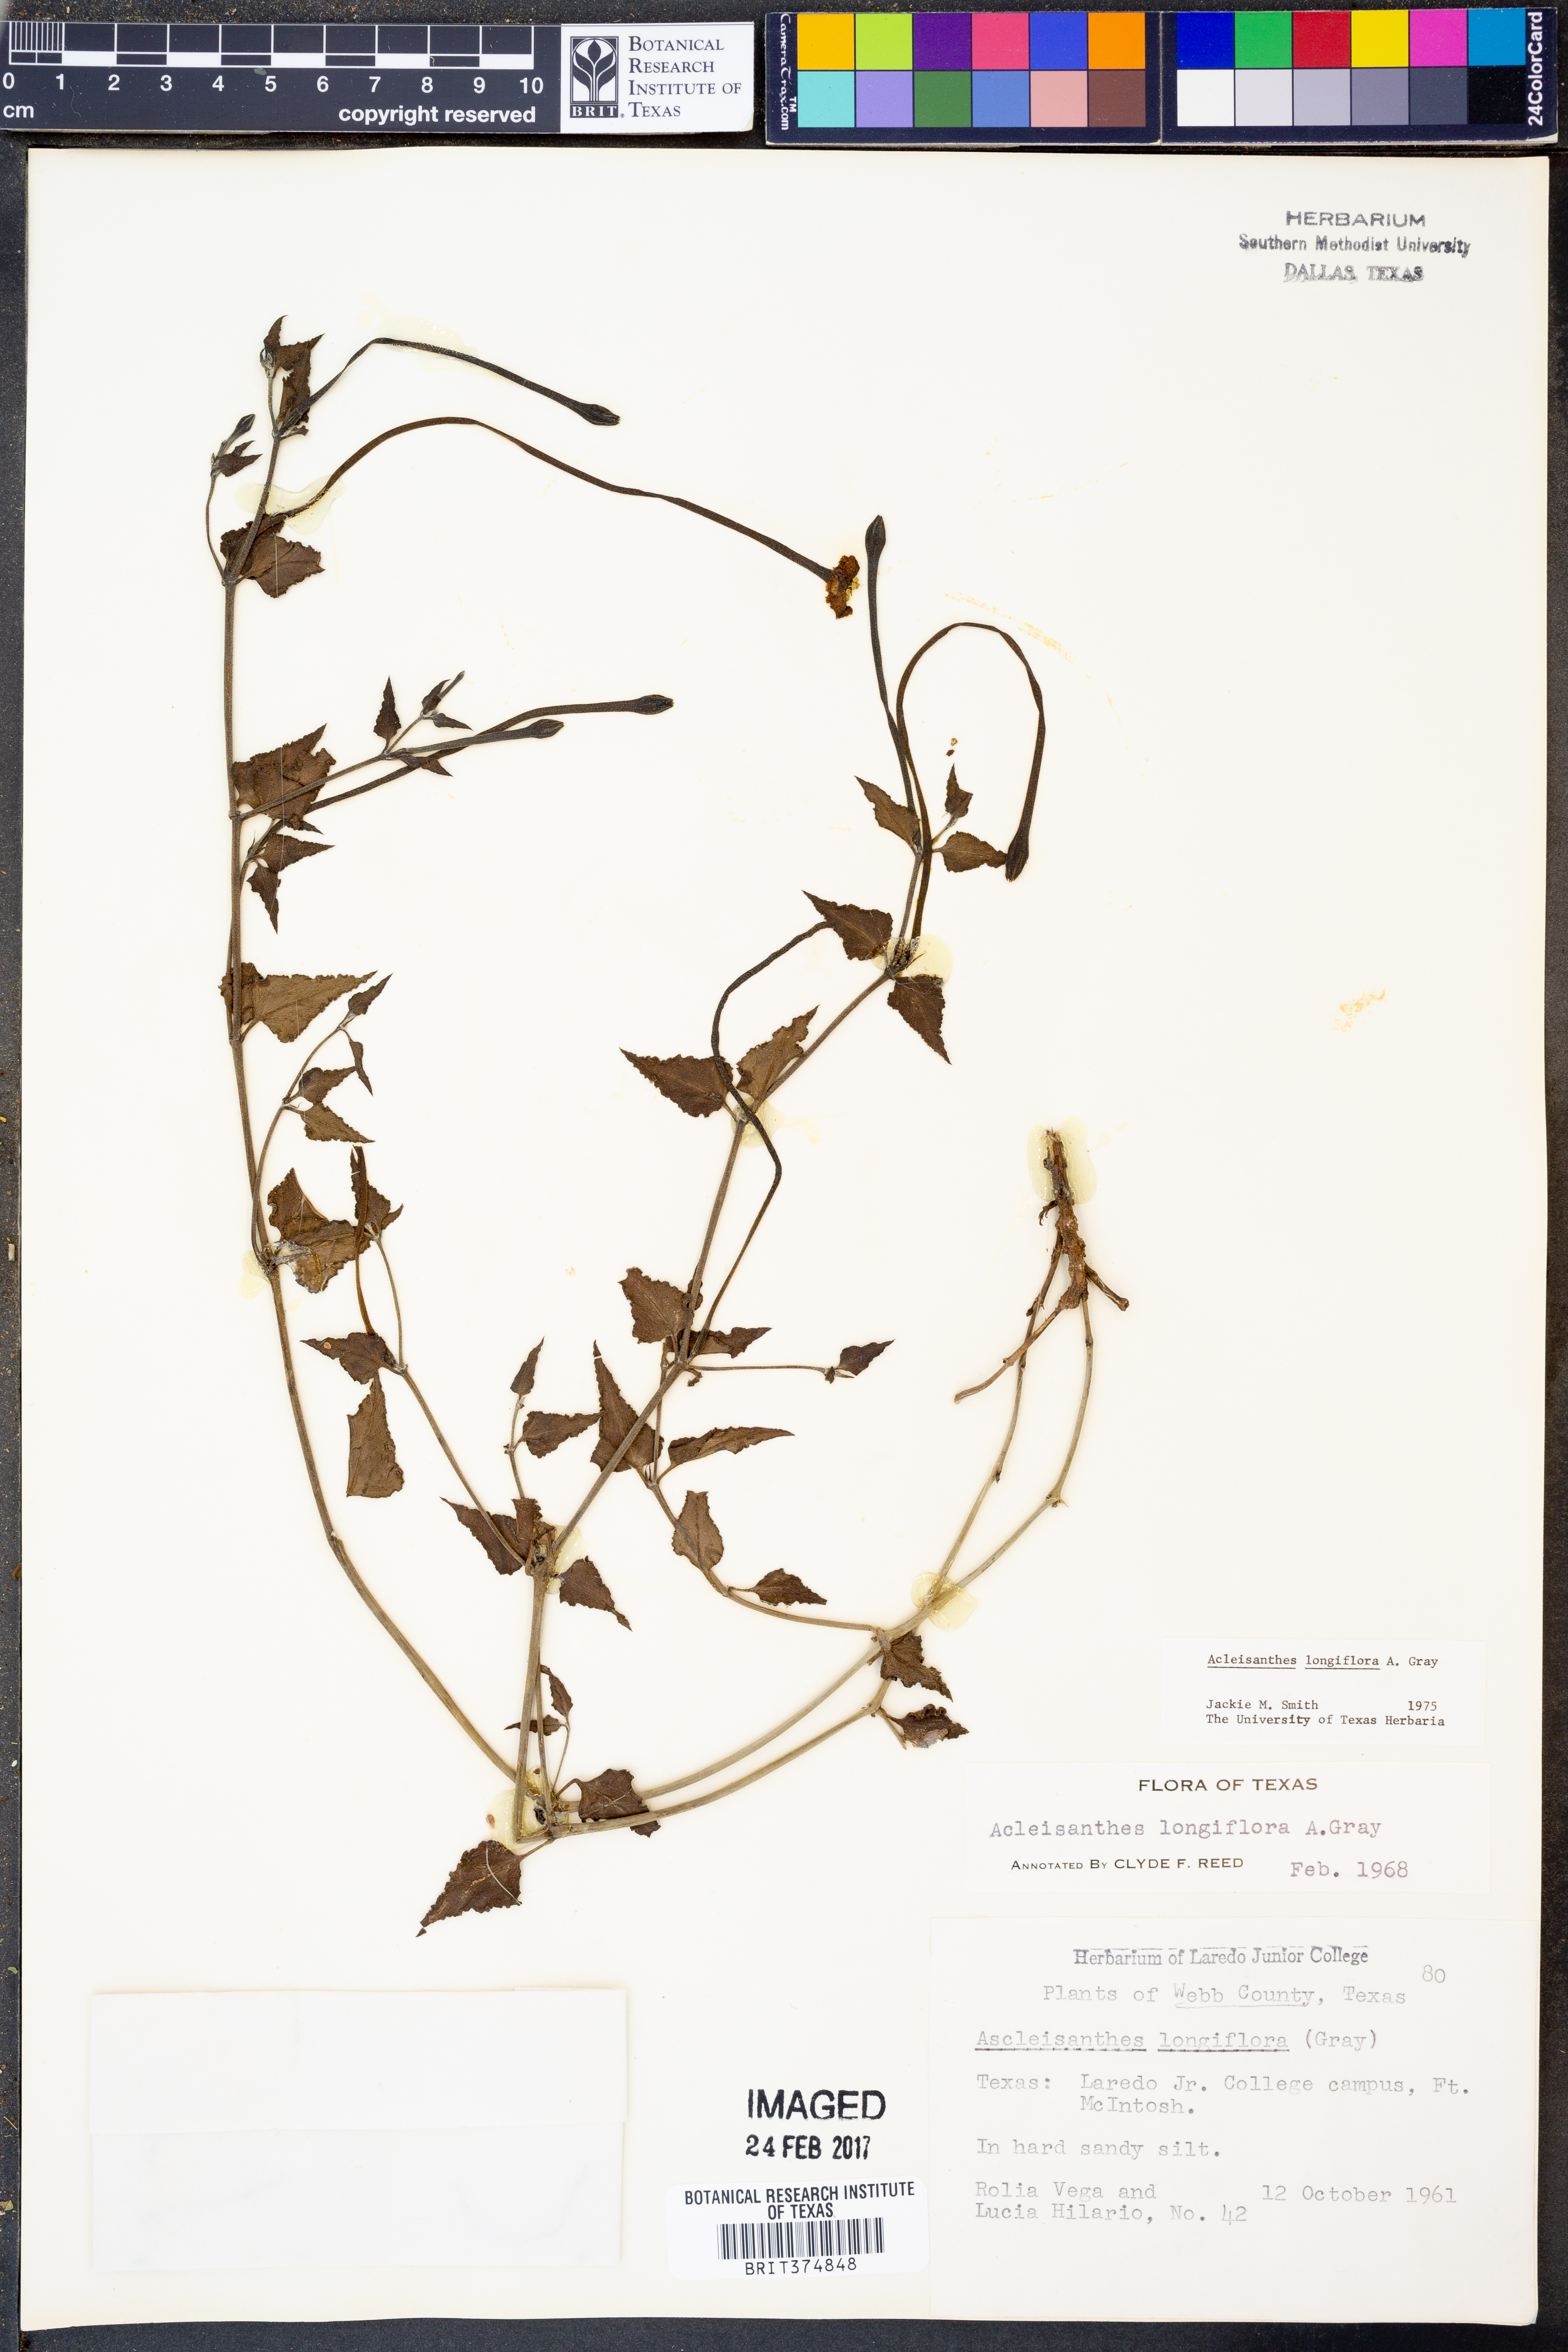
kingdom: Plantae
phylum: Tracheophyta
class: Magnoliopsida
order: Caryophyllales
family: Nyctaginaceae
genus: Acleisanthes
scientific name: Acleisanthes longiflora
